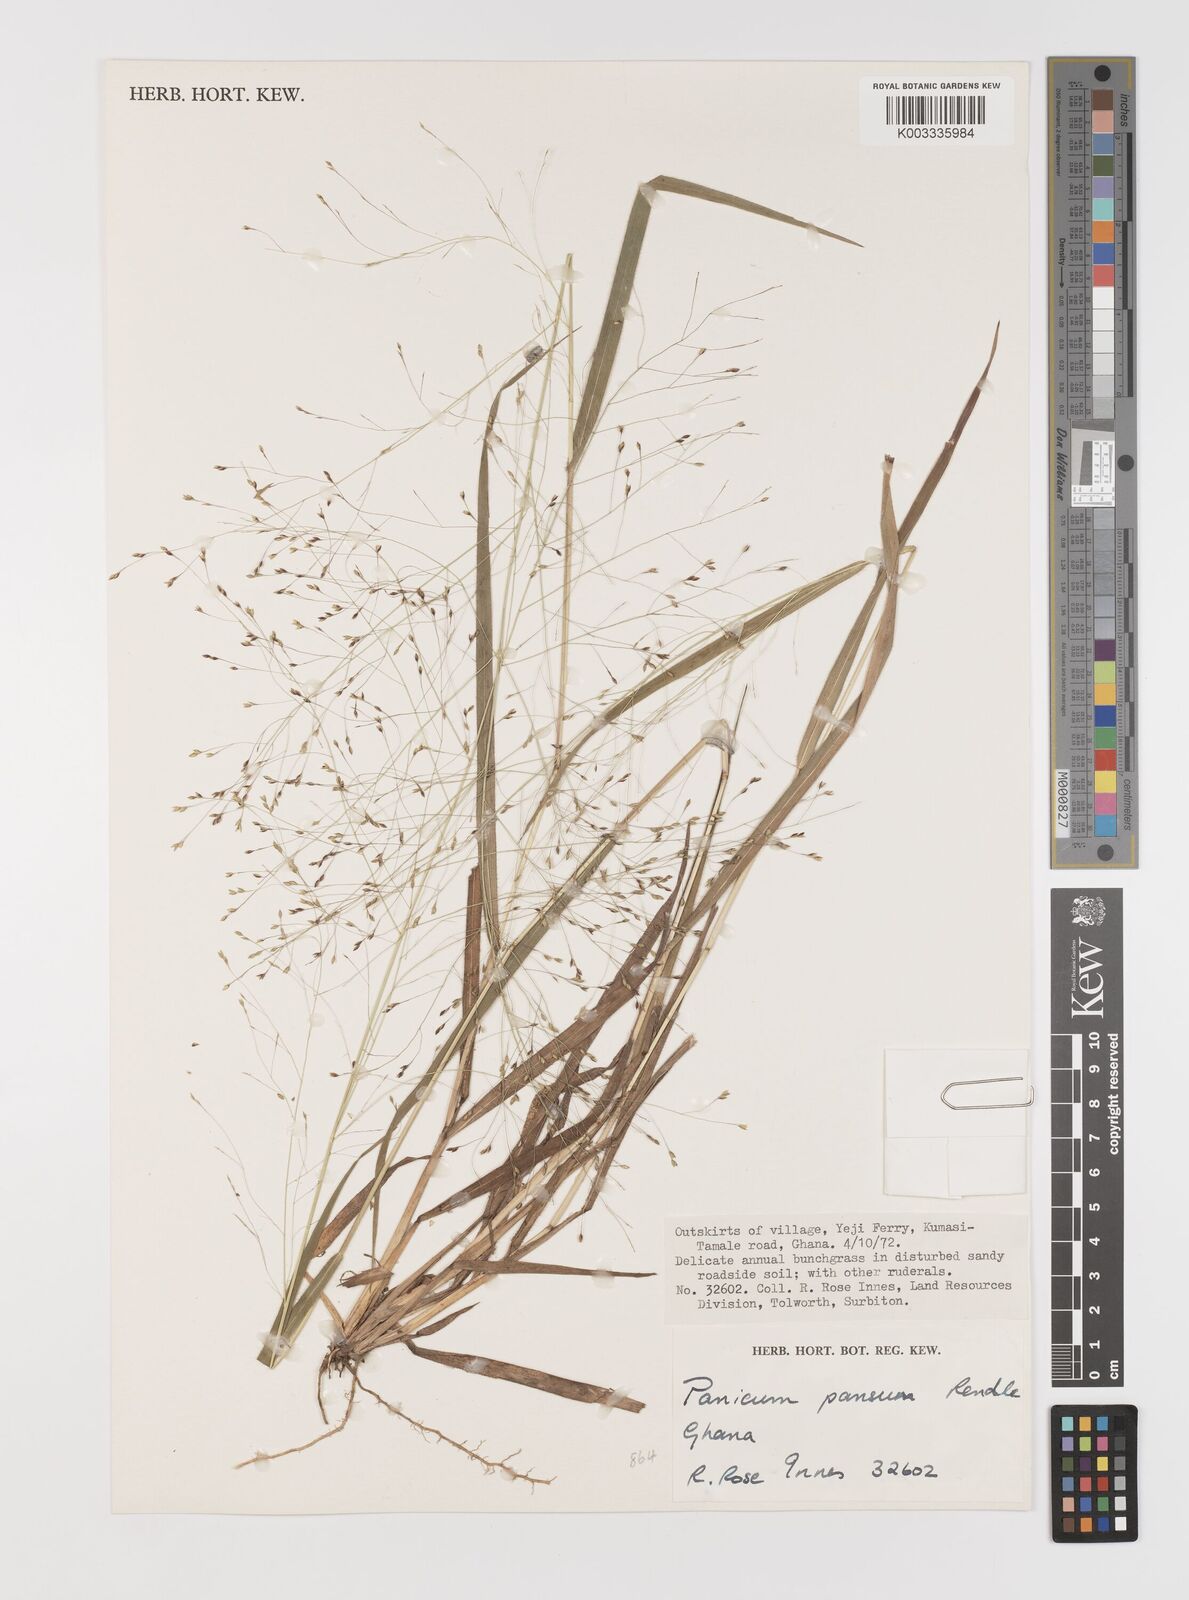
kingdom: Plantae
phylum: Tracheophyta
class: Liliopsida
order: Poales
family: Poaceae
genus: Panicum
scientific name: Panicum pansum
